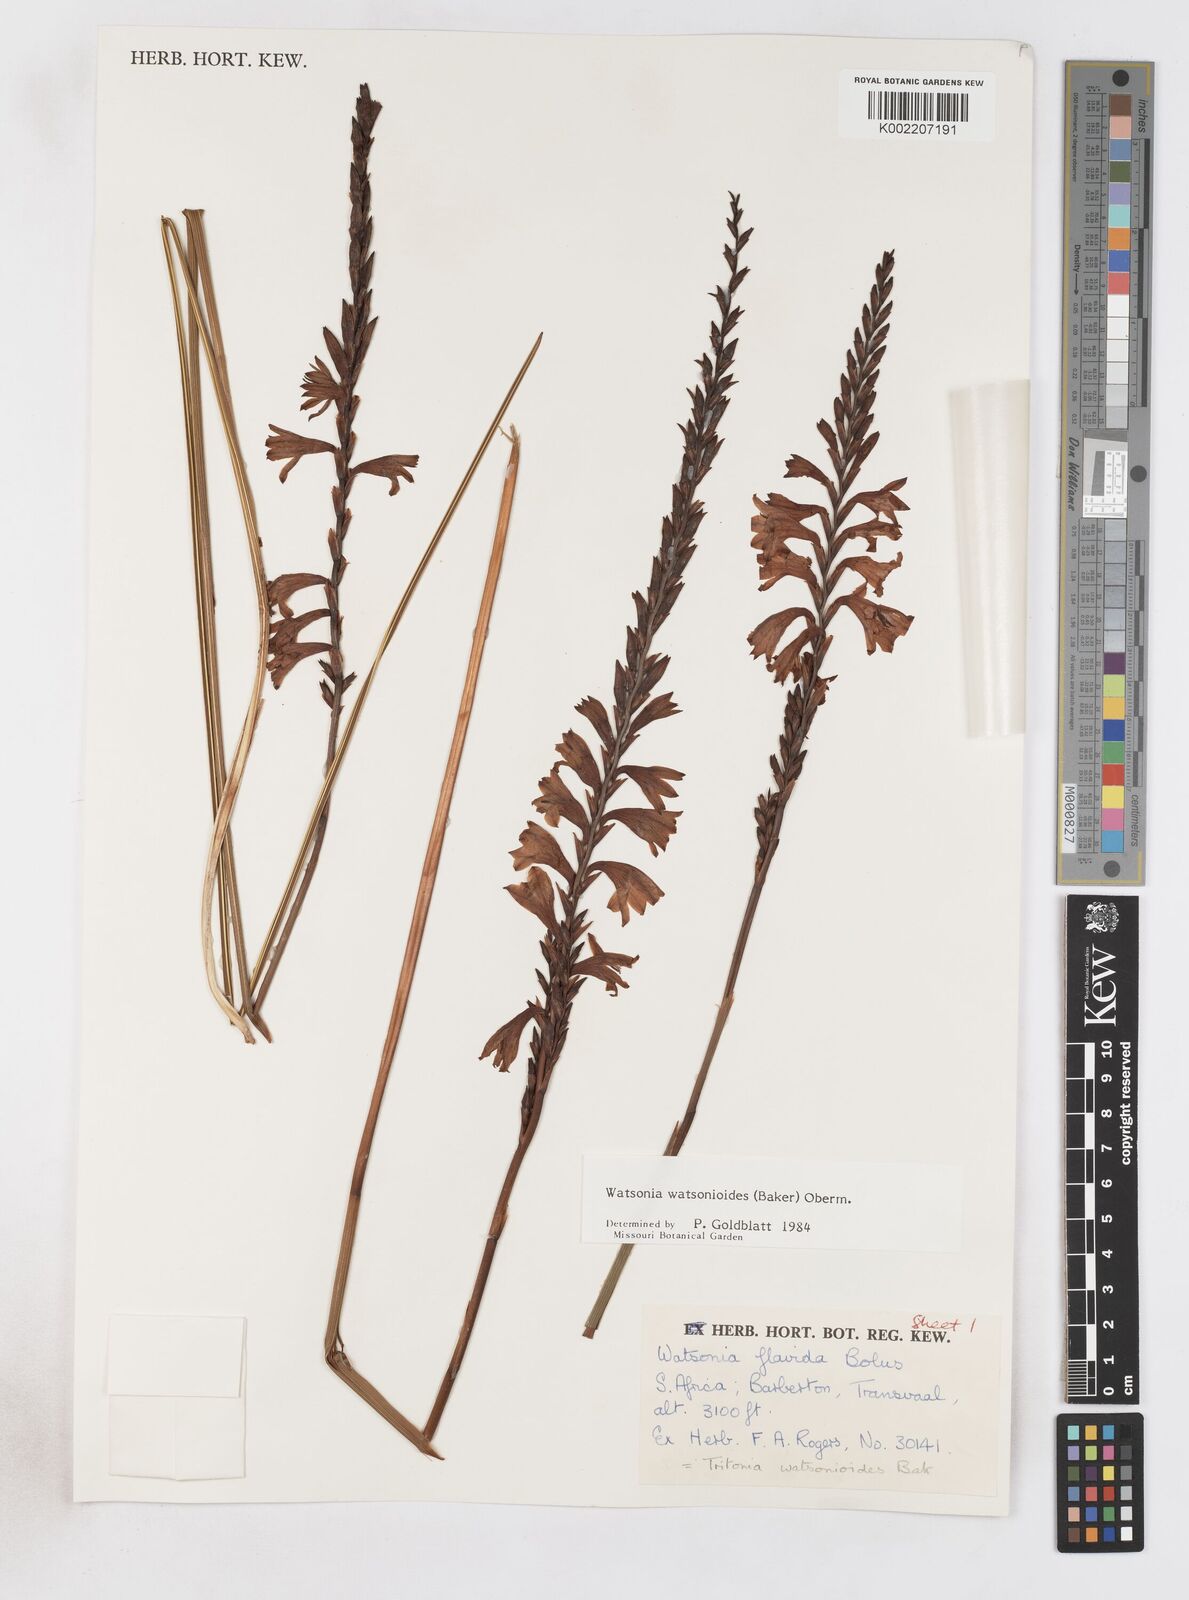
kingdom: Plantae
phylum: Tracheophyta
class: Liliopsida
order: Asparagales
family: Iridaceae
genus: Watsonia
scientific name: Watsonia watsonioides
